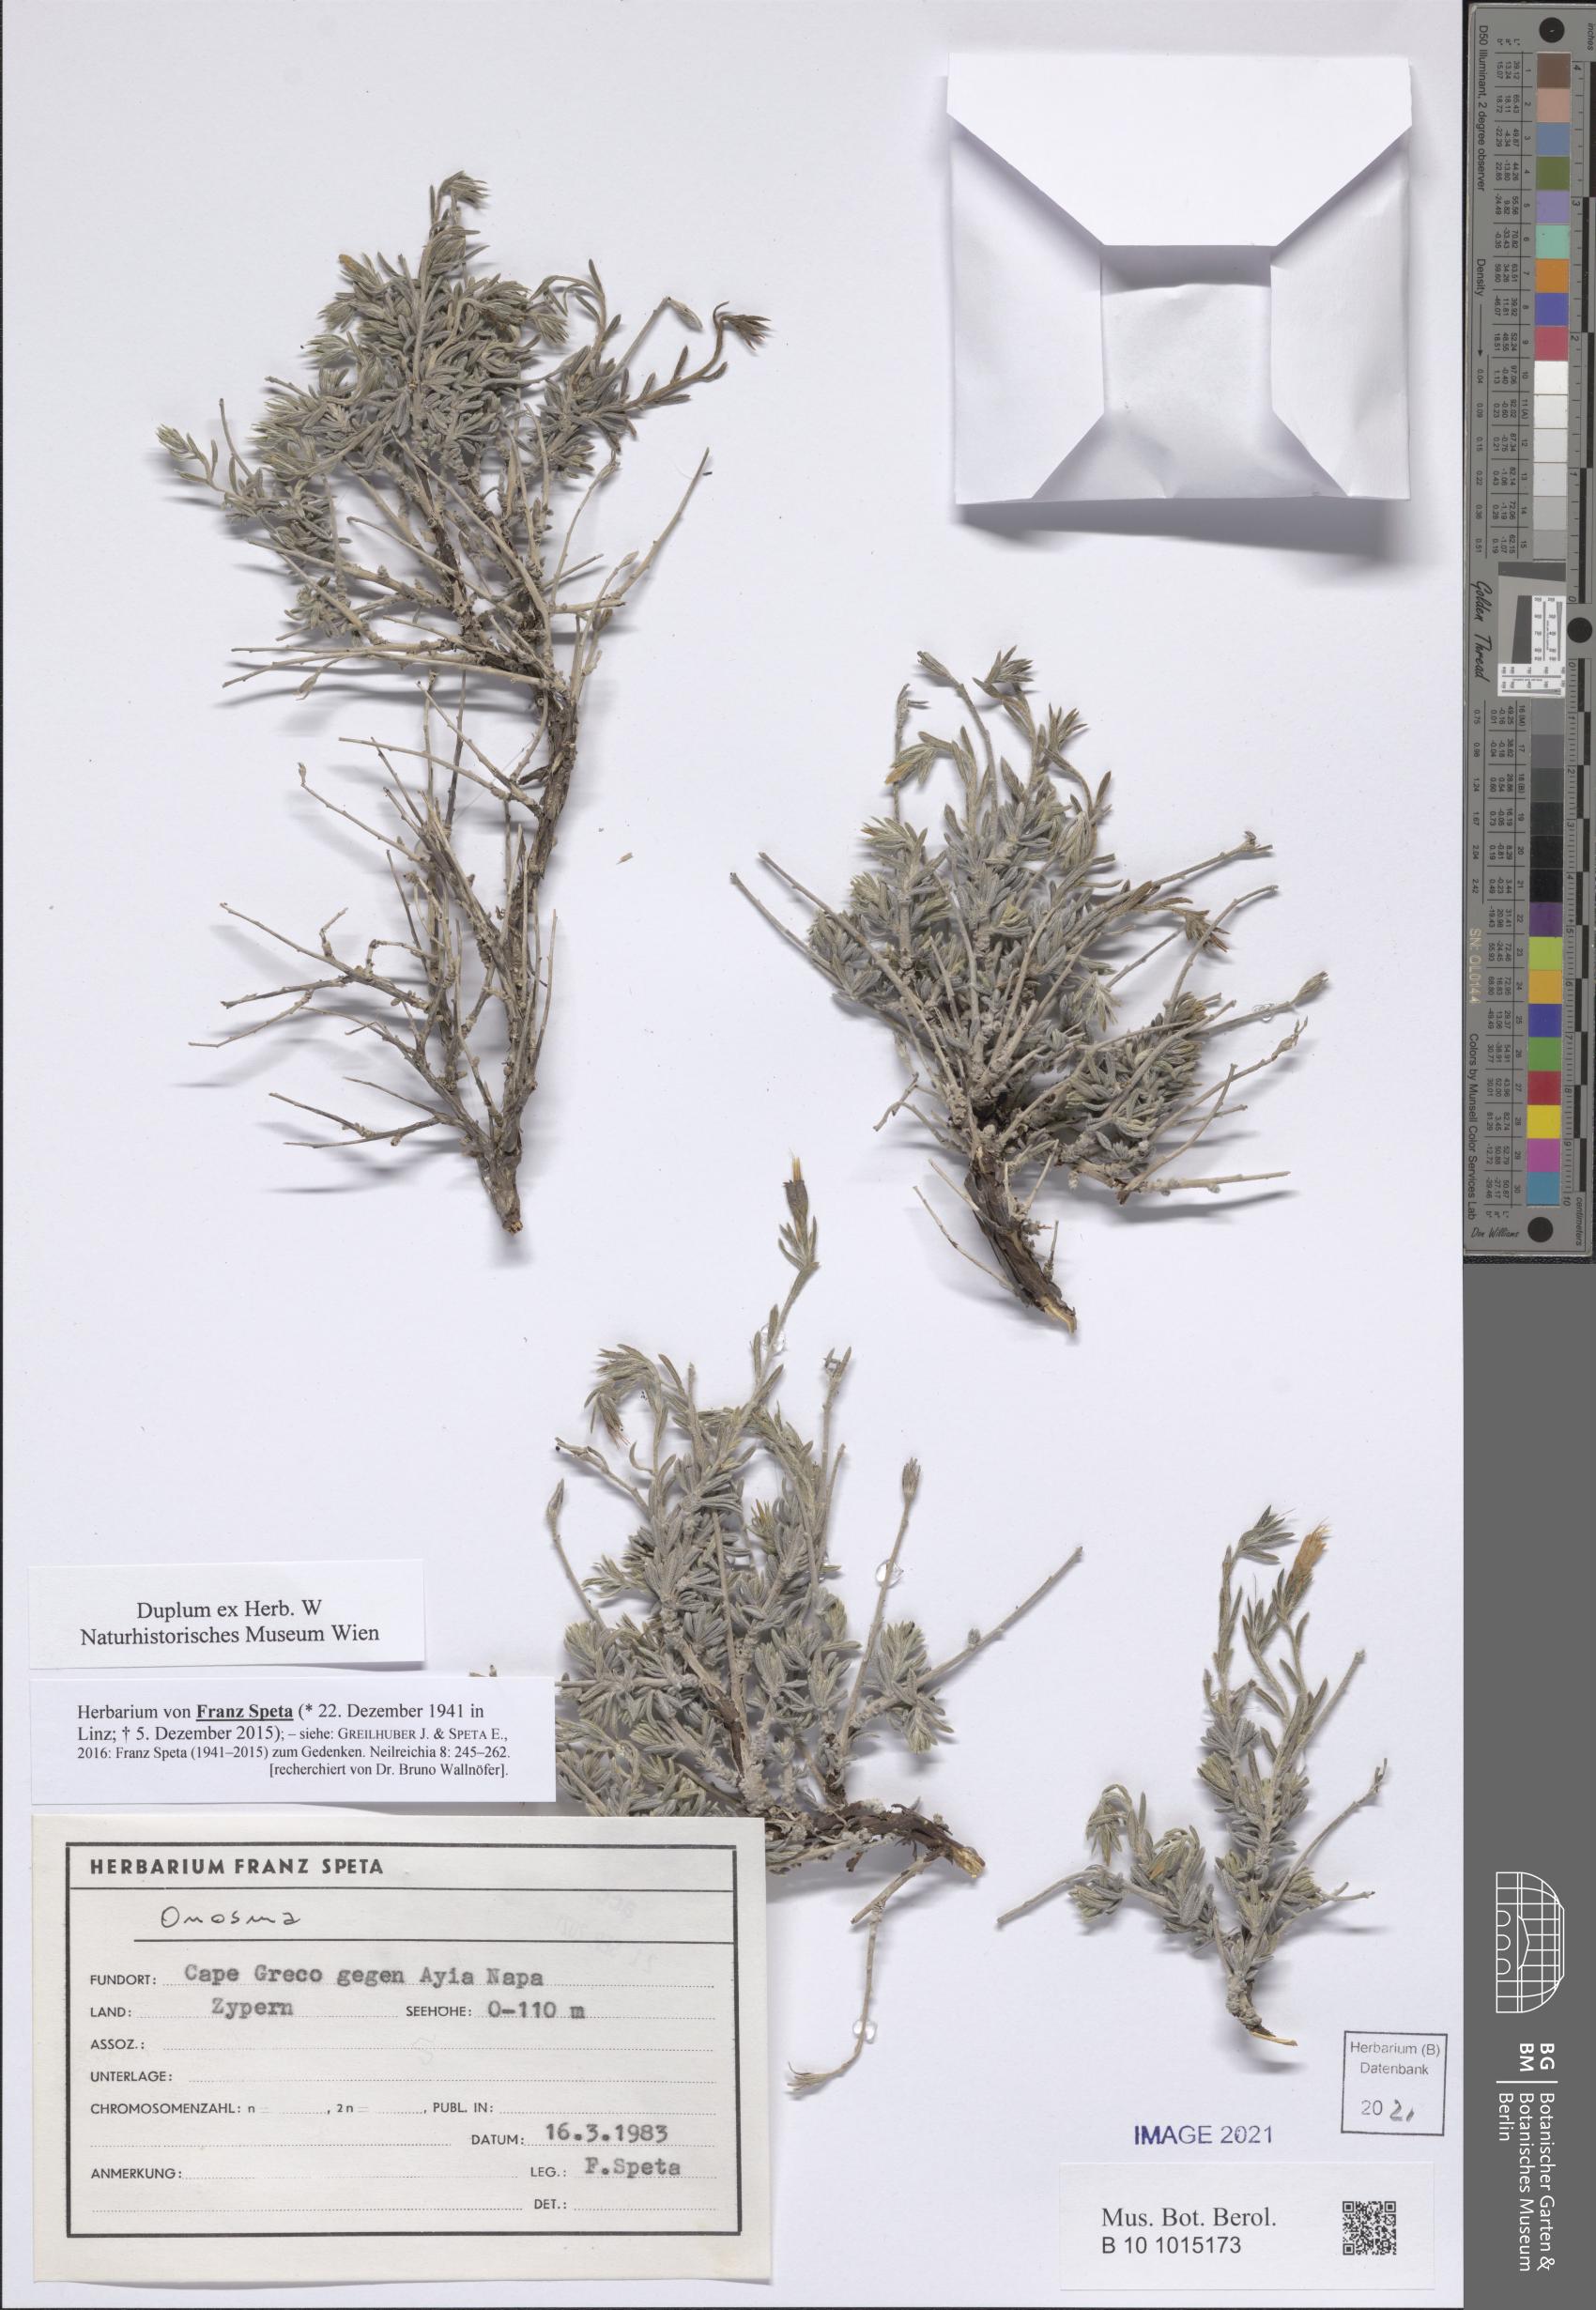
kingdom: Plantae
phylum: Tracheophyta
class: Magnoliopsida
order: Boraginales
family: Boraginaceae
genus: Onosma
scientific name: Onosma
